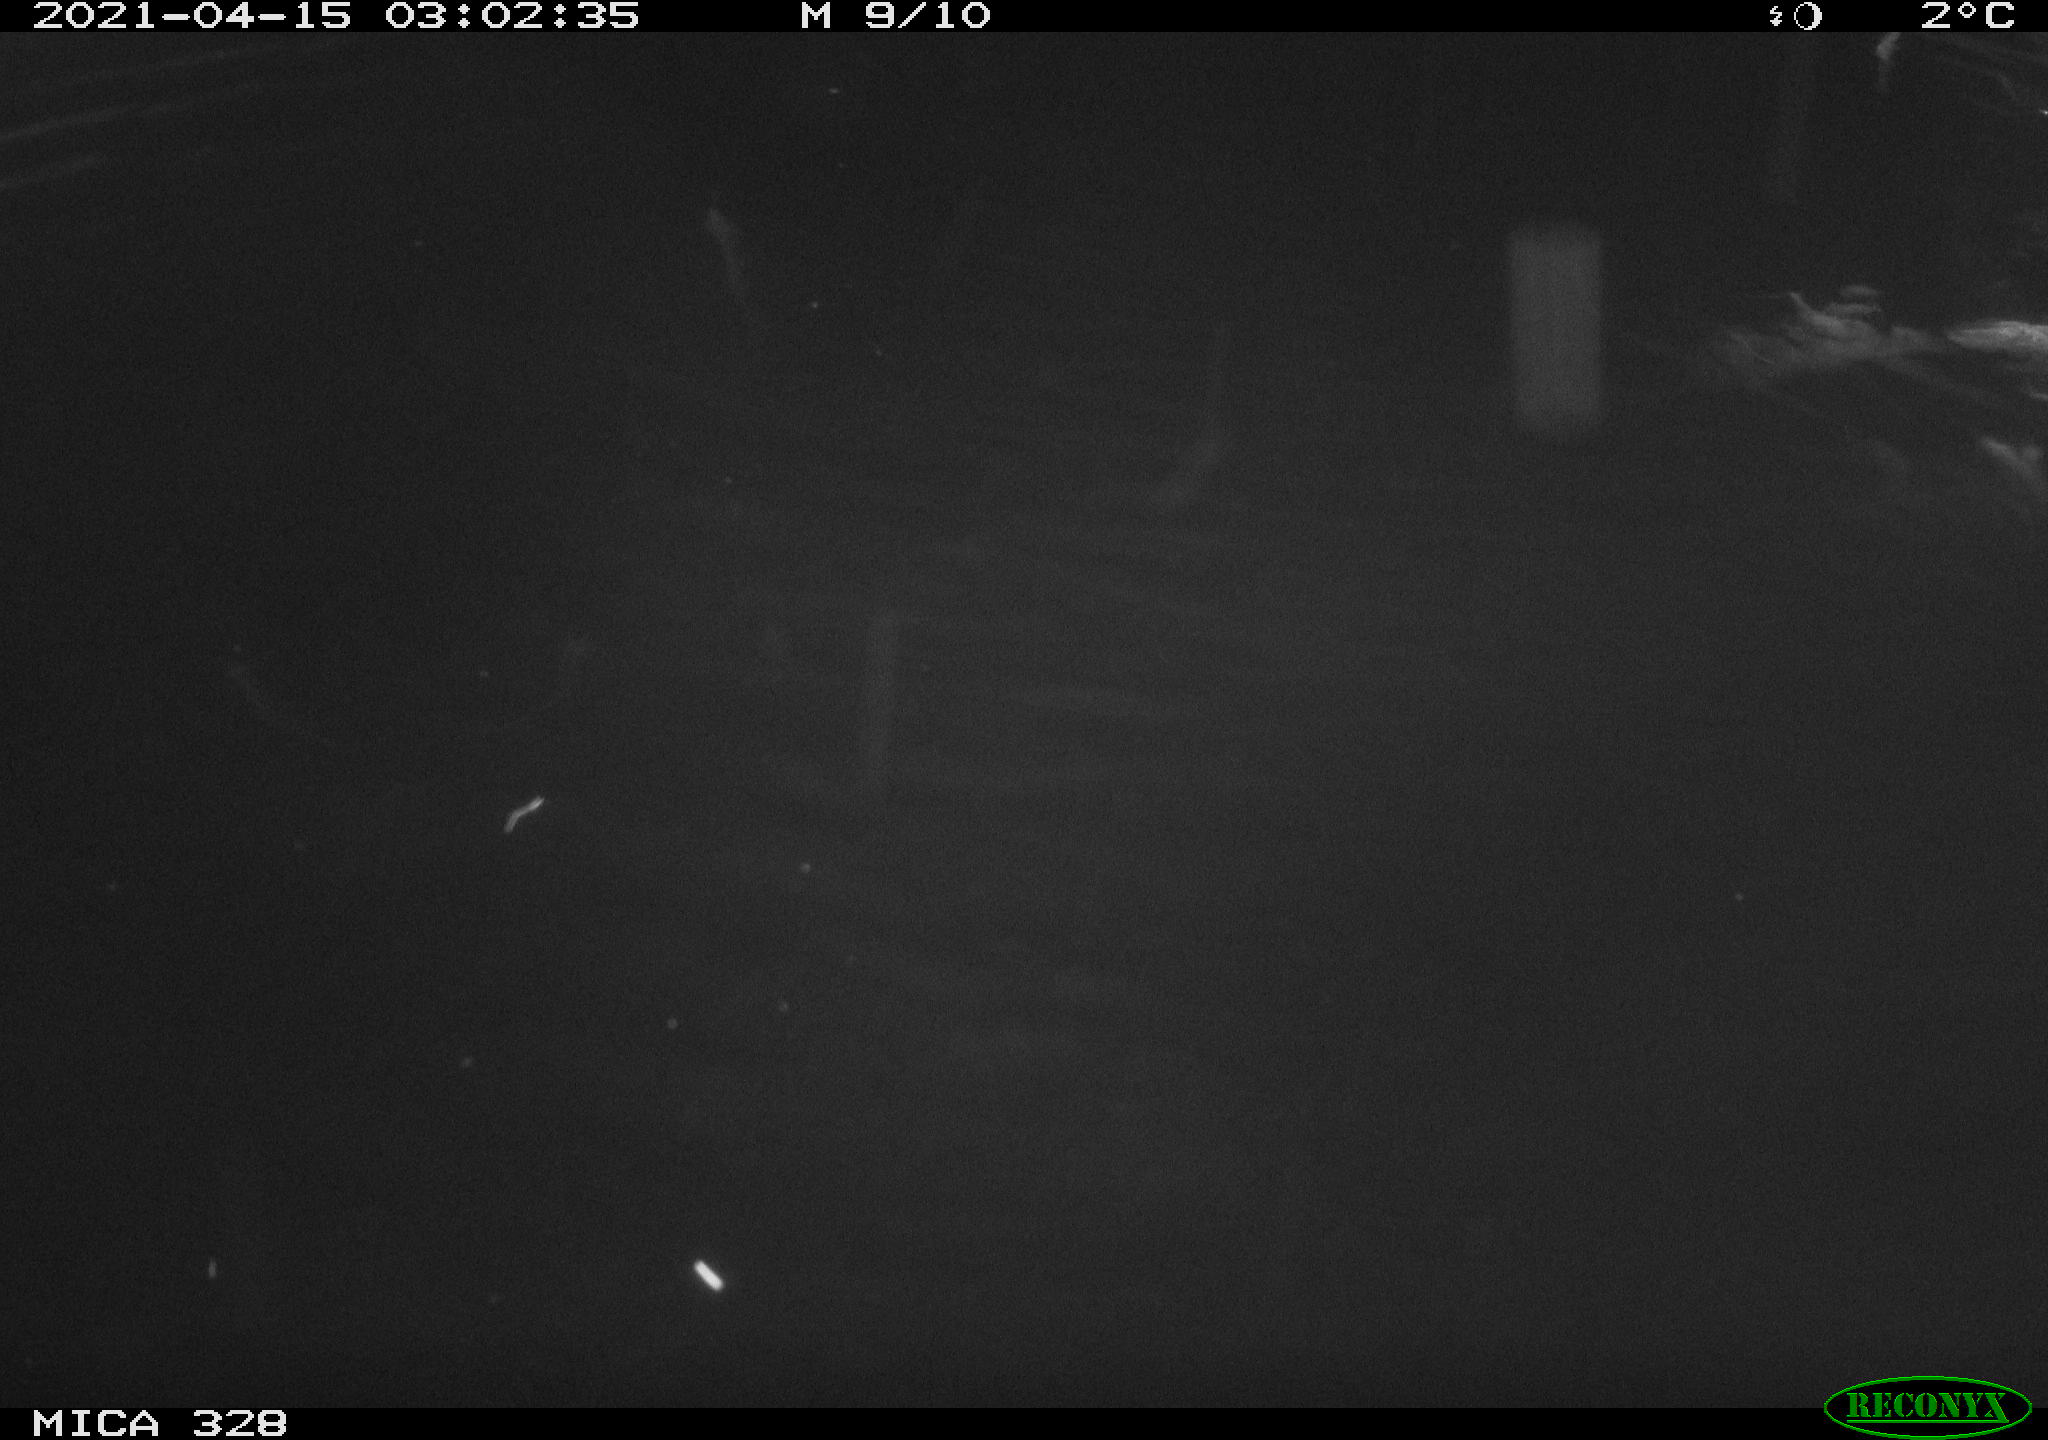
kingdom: Animalia
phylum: Chordata
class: Mammalia
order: Rodentia
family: Cricetidae
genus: Ondatra
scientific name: Ondatra zibethicus
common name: Muskrat
